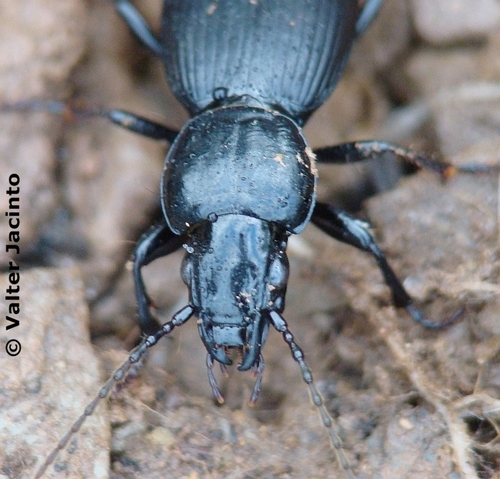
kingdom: Animalia
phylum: Arthropoda
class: Insecta
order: Coleoptera
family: Carabidae
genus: Pterostichus
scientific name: Pterostichus ebenus
